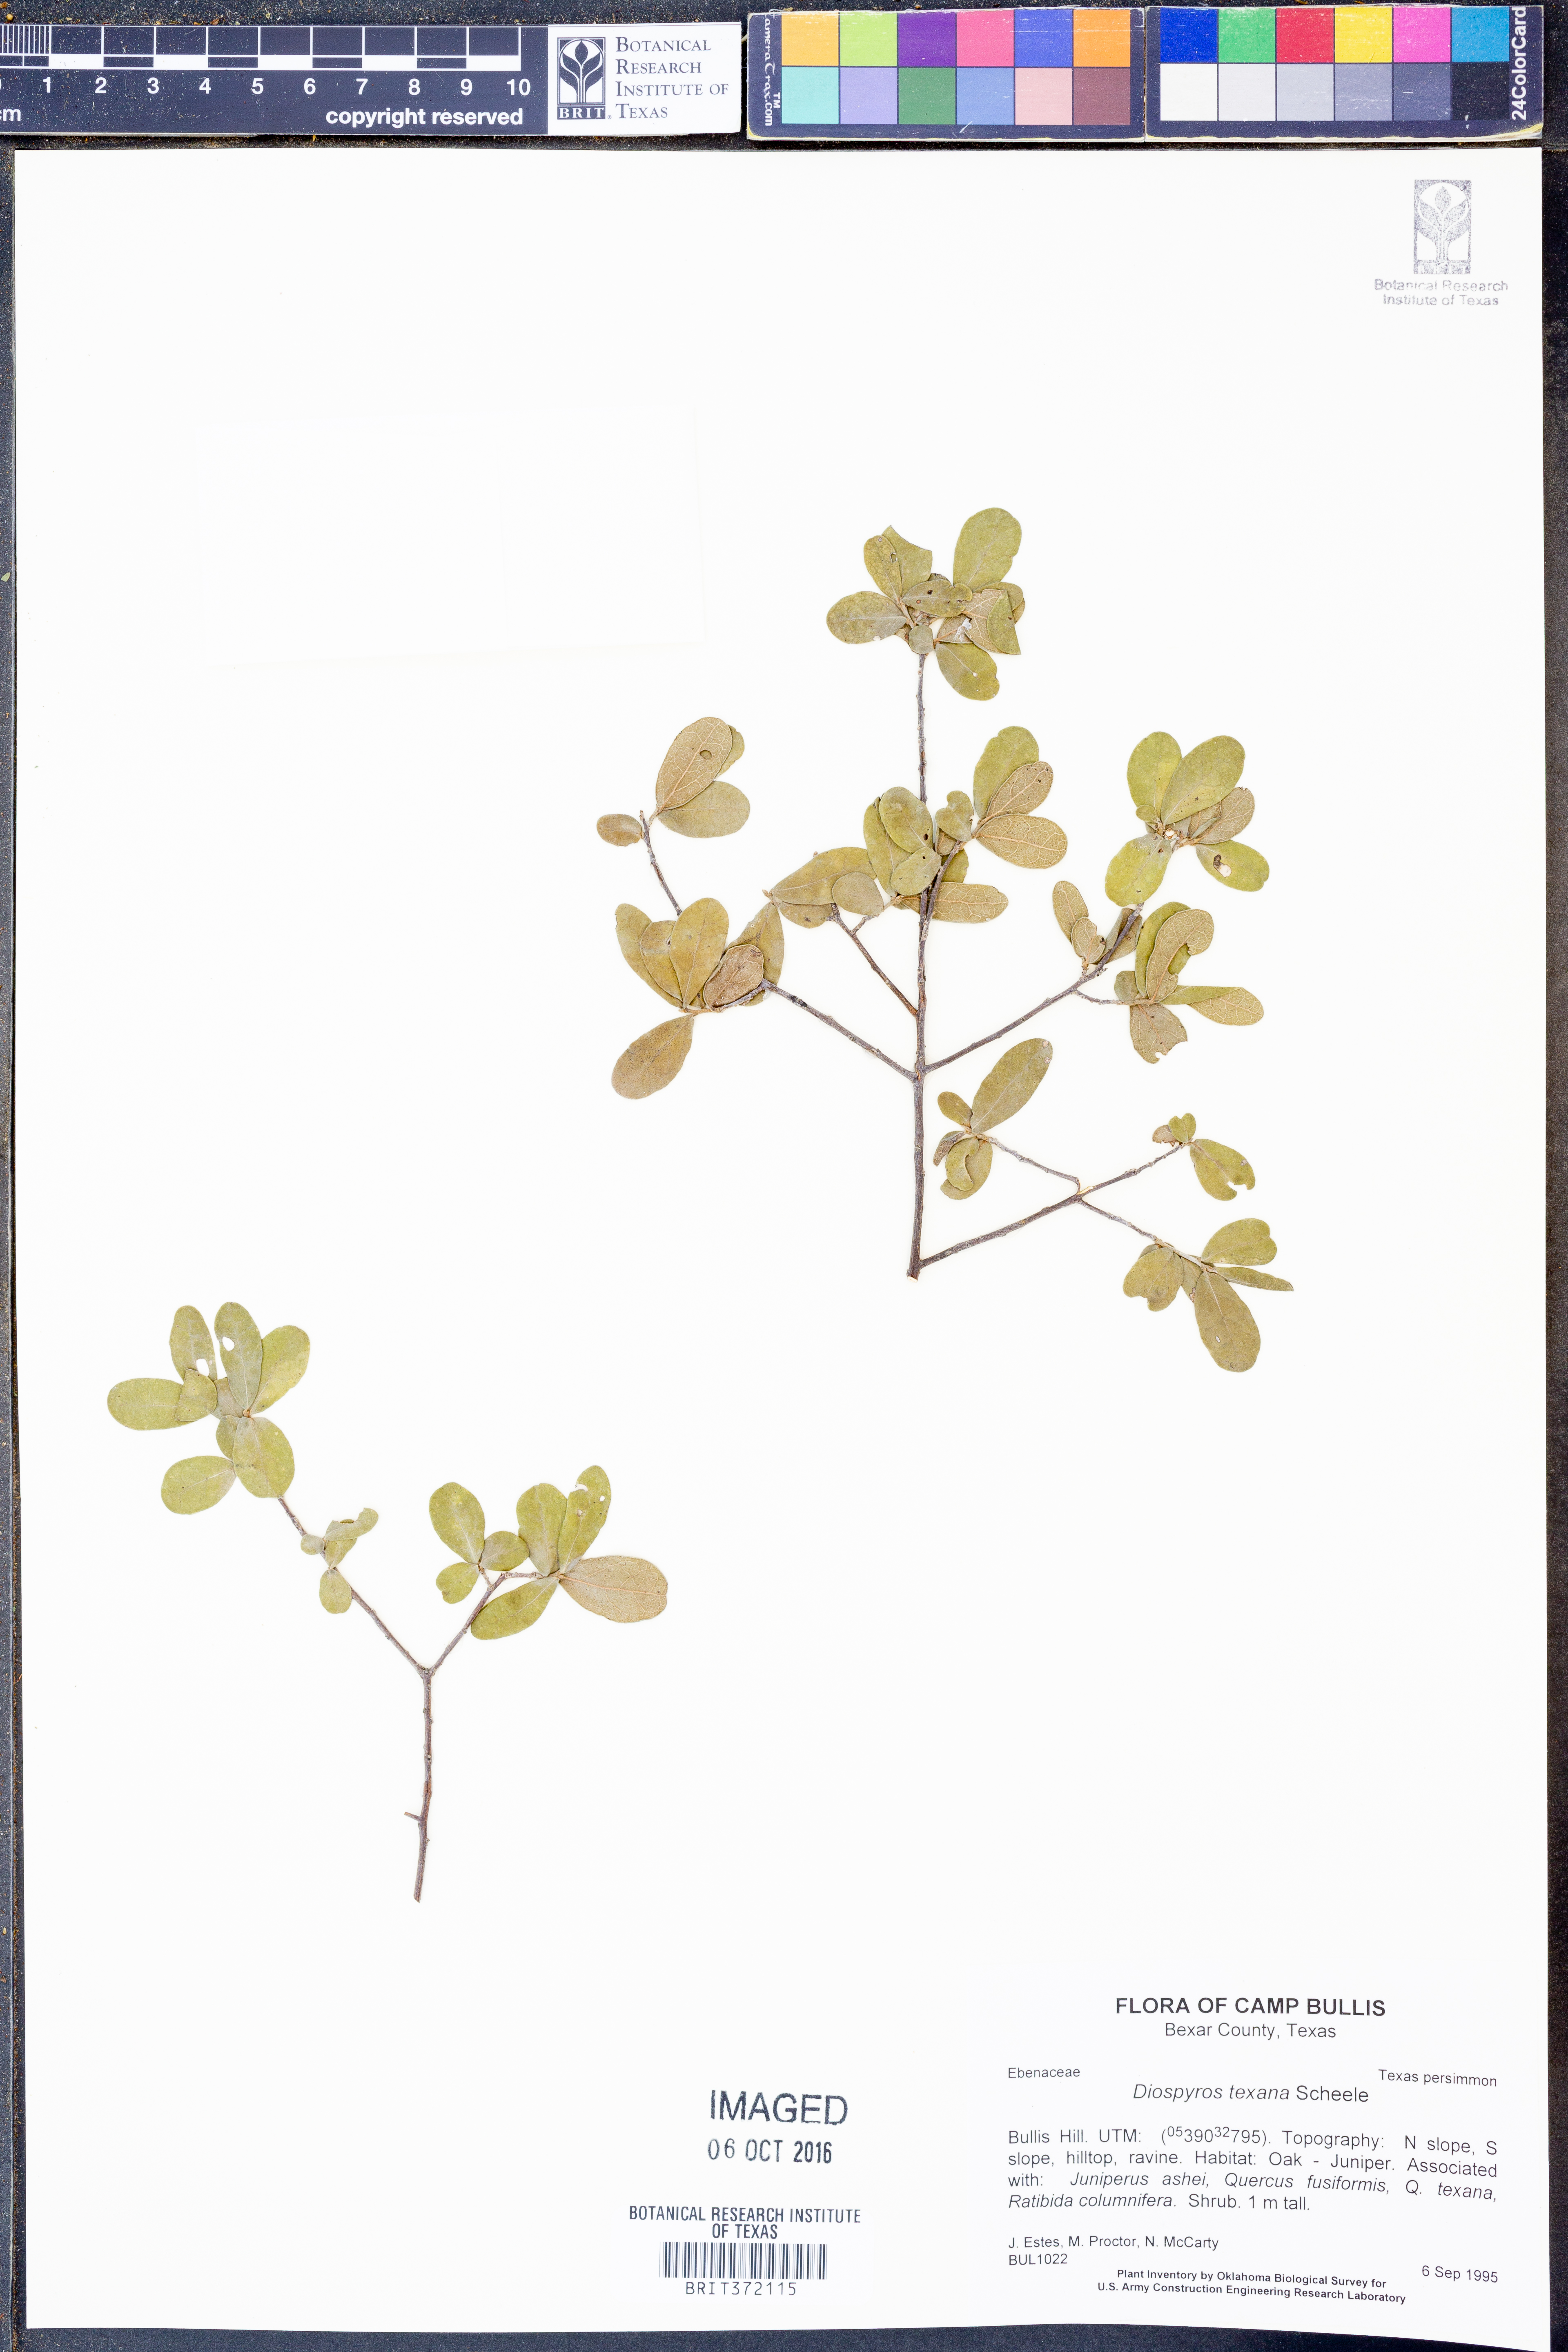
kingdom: Plantae
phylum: Tracheophyta
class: Magnoliopsida
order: Ericales
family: Ebenaceae
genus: Diospyros
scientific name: Diospyros texana
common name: Texas persimmon
